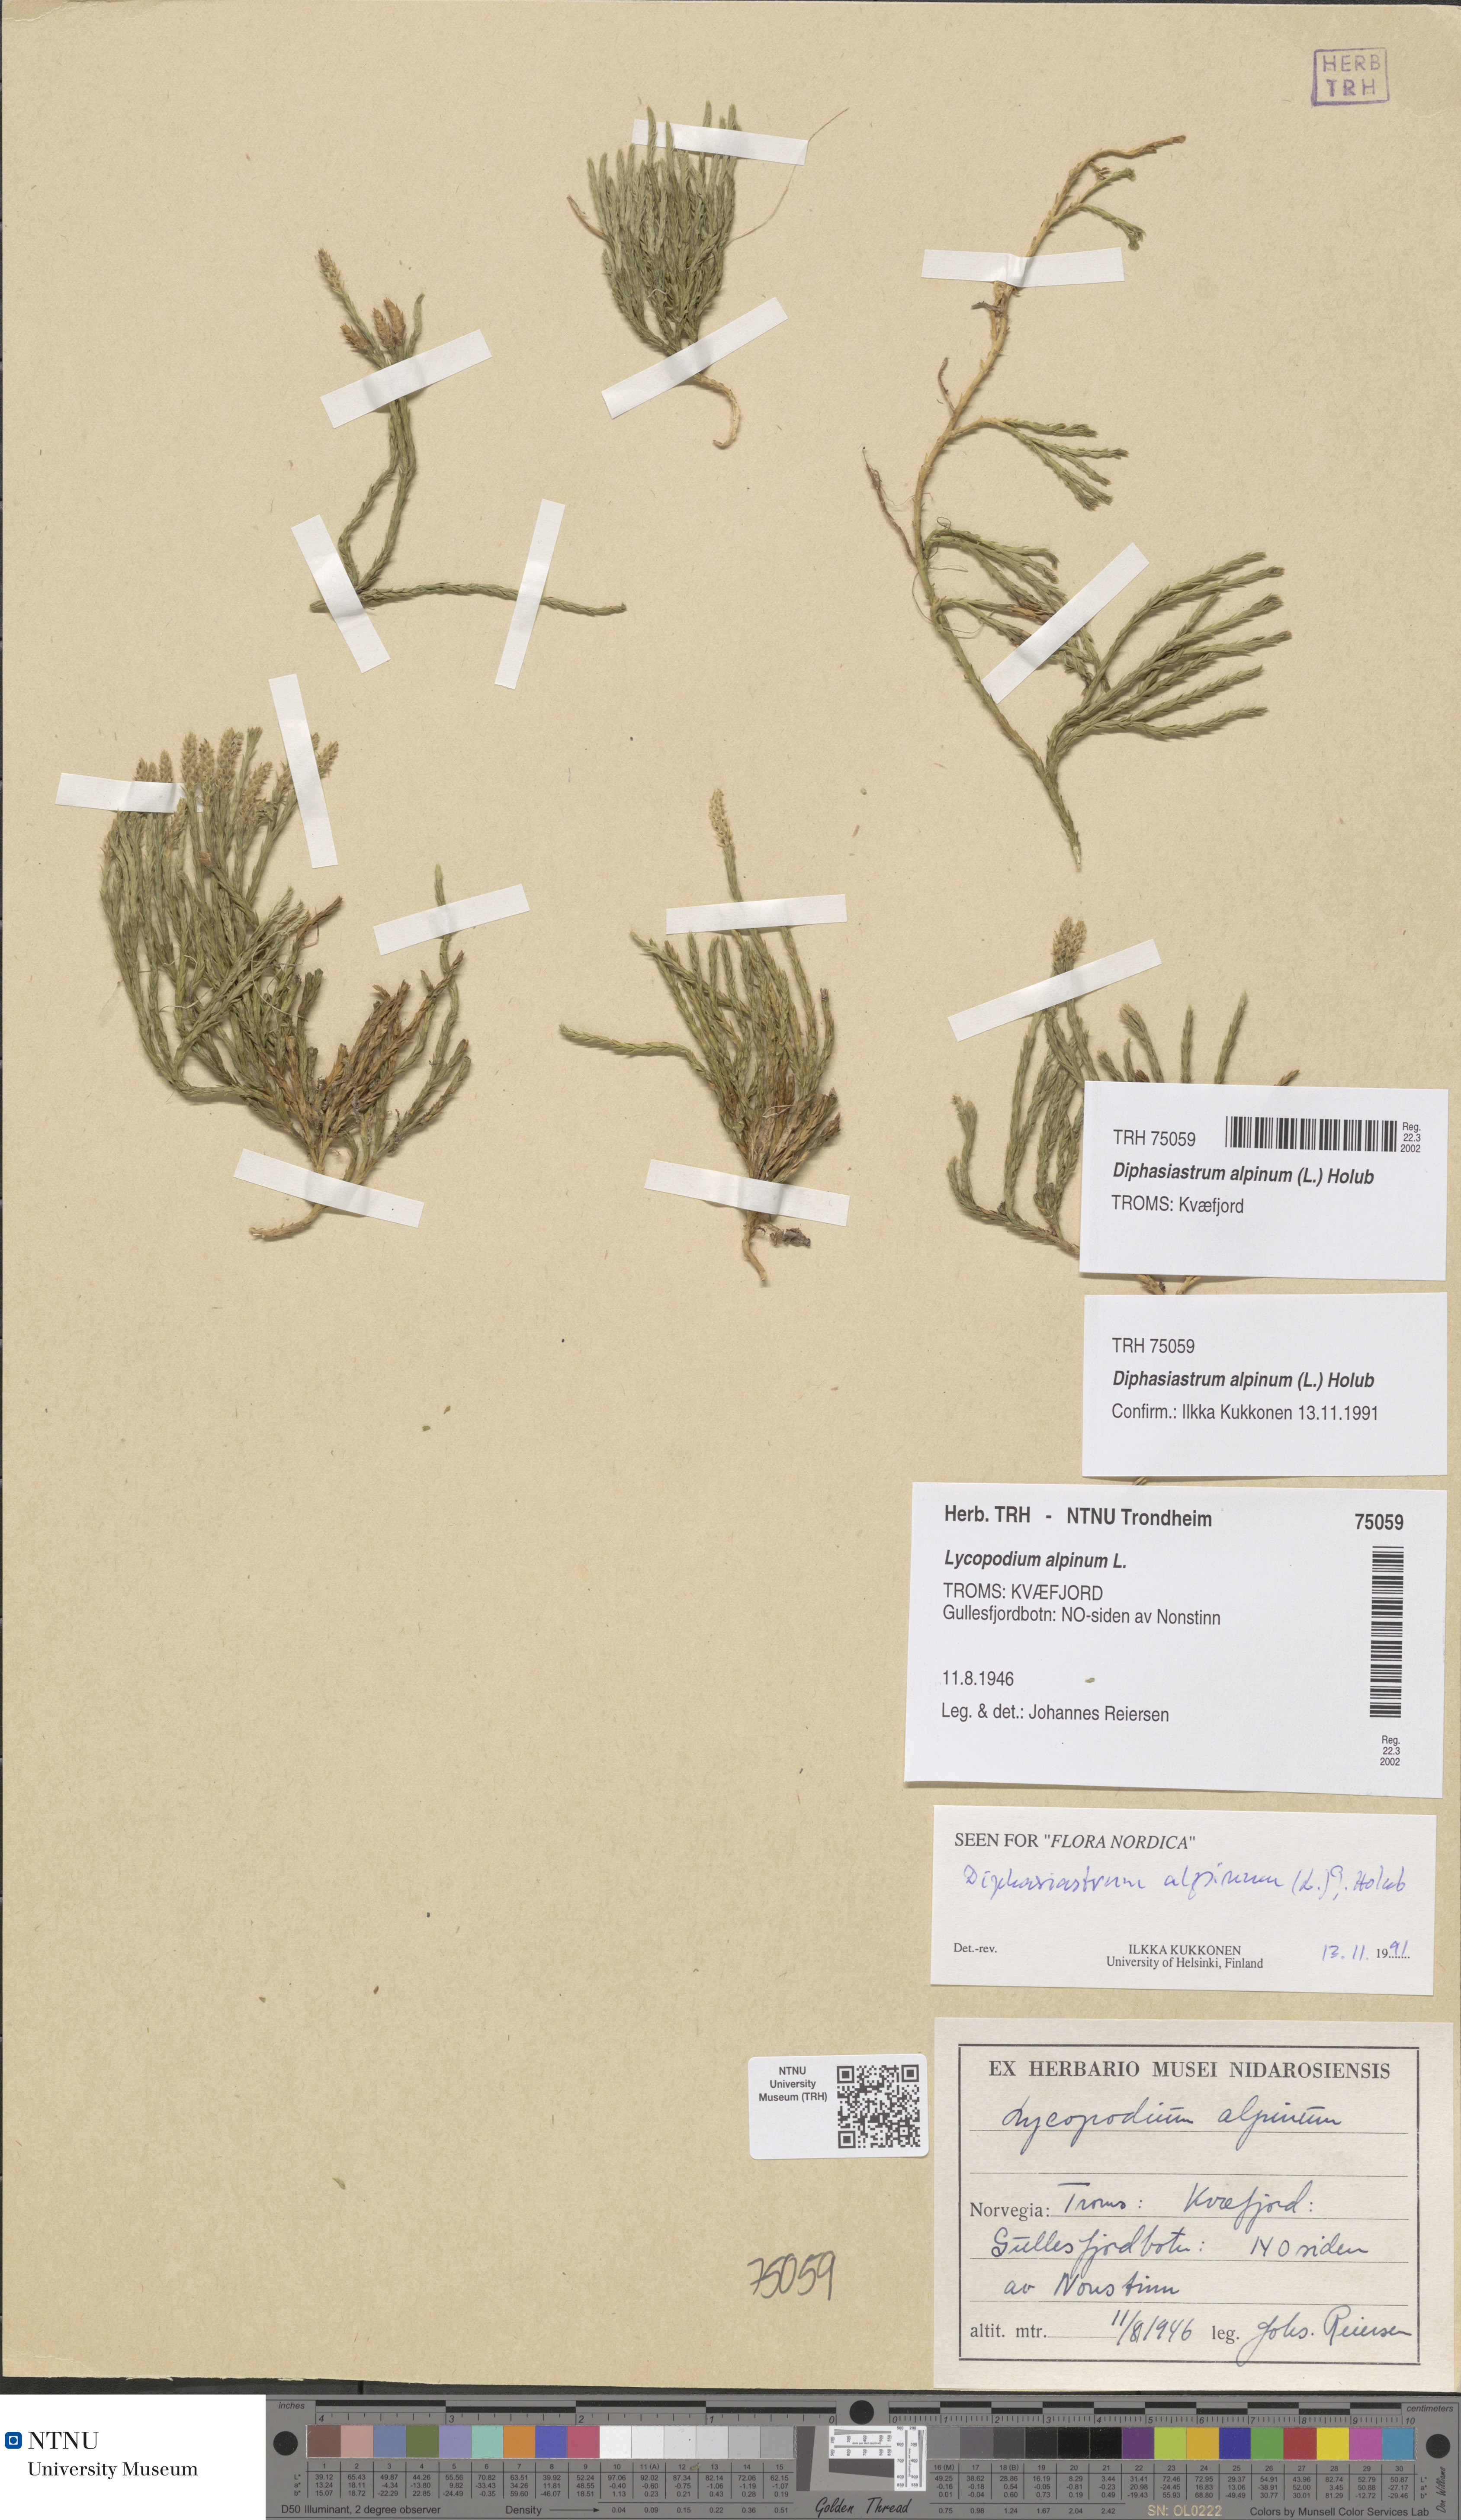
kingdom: Plantae
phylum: Tracheophyta
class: Lycopodiopsida
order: Lycopodiales
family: Lycopodiaceae
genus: Diphasiastrum
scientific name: Diphasiastrum alpinum
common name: Alpine clubmoss
